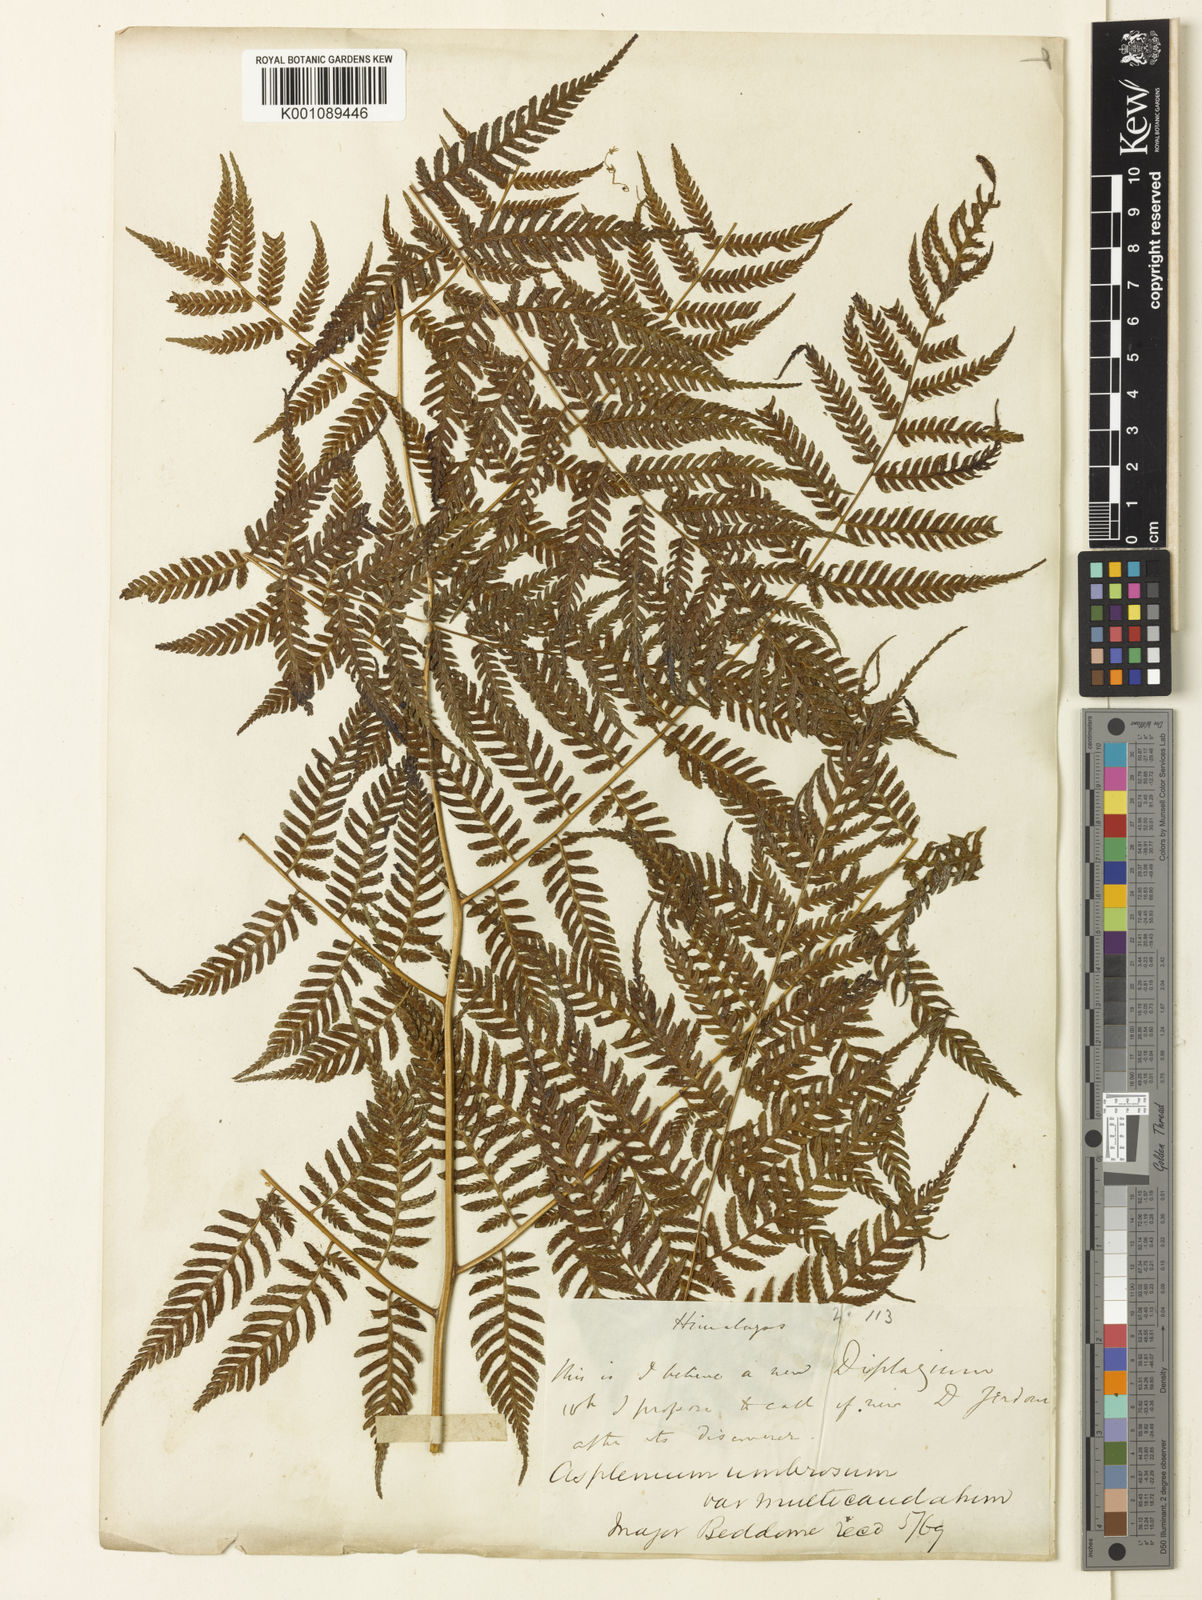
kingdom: Plantae
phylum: Tracheophyta
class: Polypodiopsida
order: Polypodiales
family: Athyriaceae
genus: Diplazium
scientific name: Diplazium spectabile
